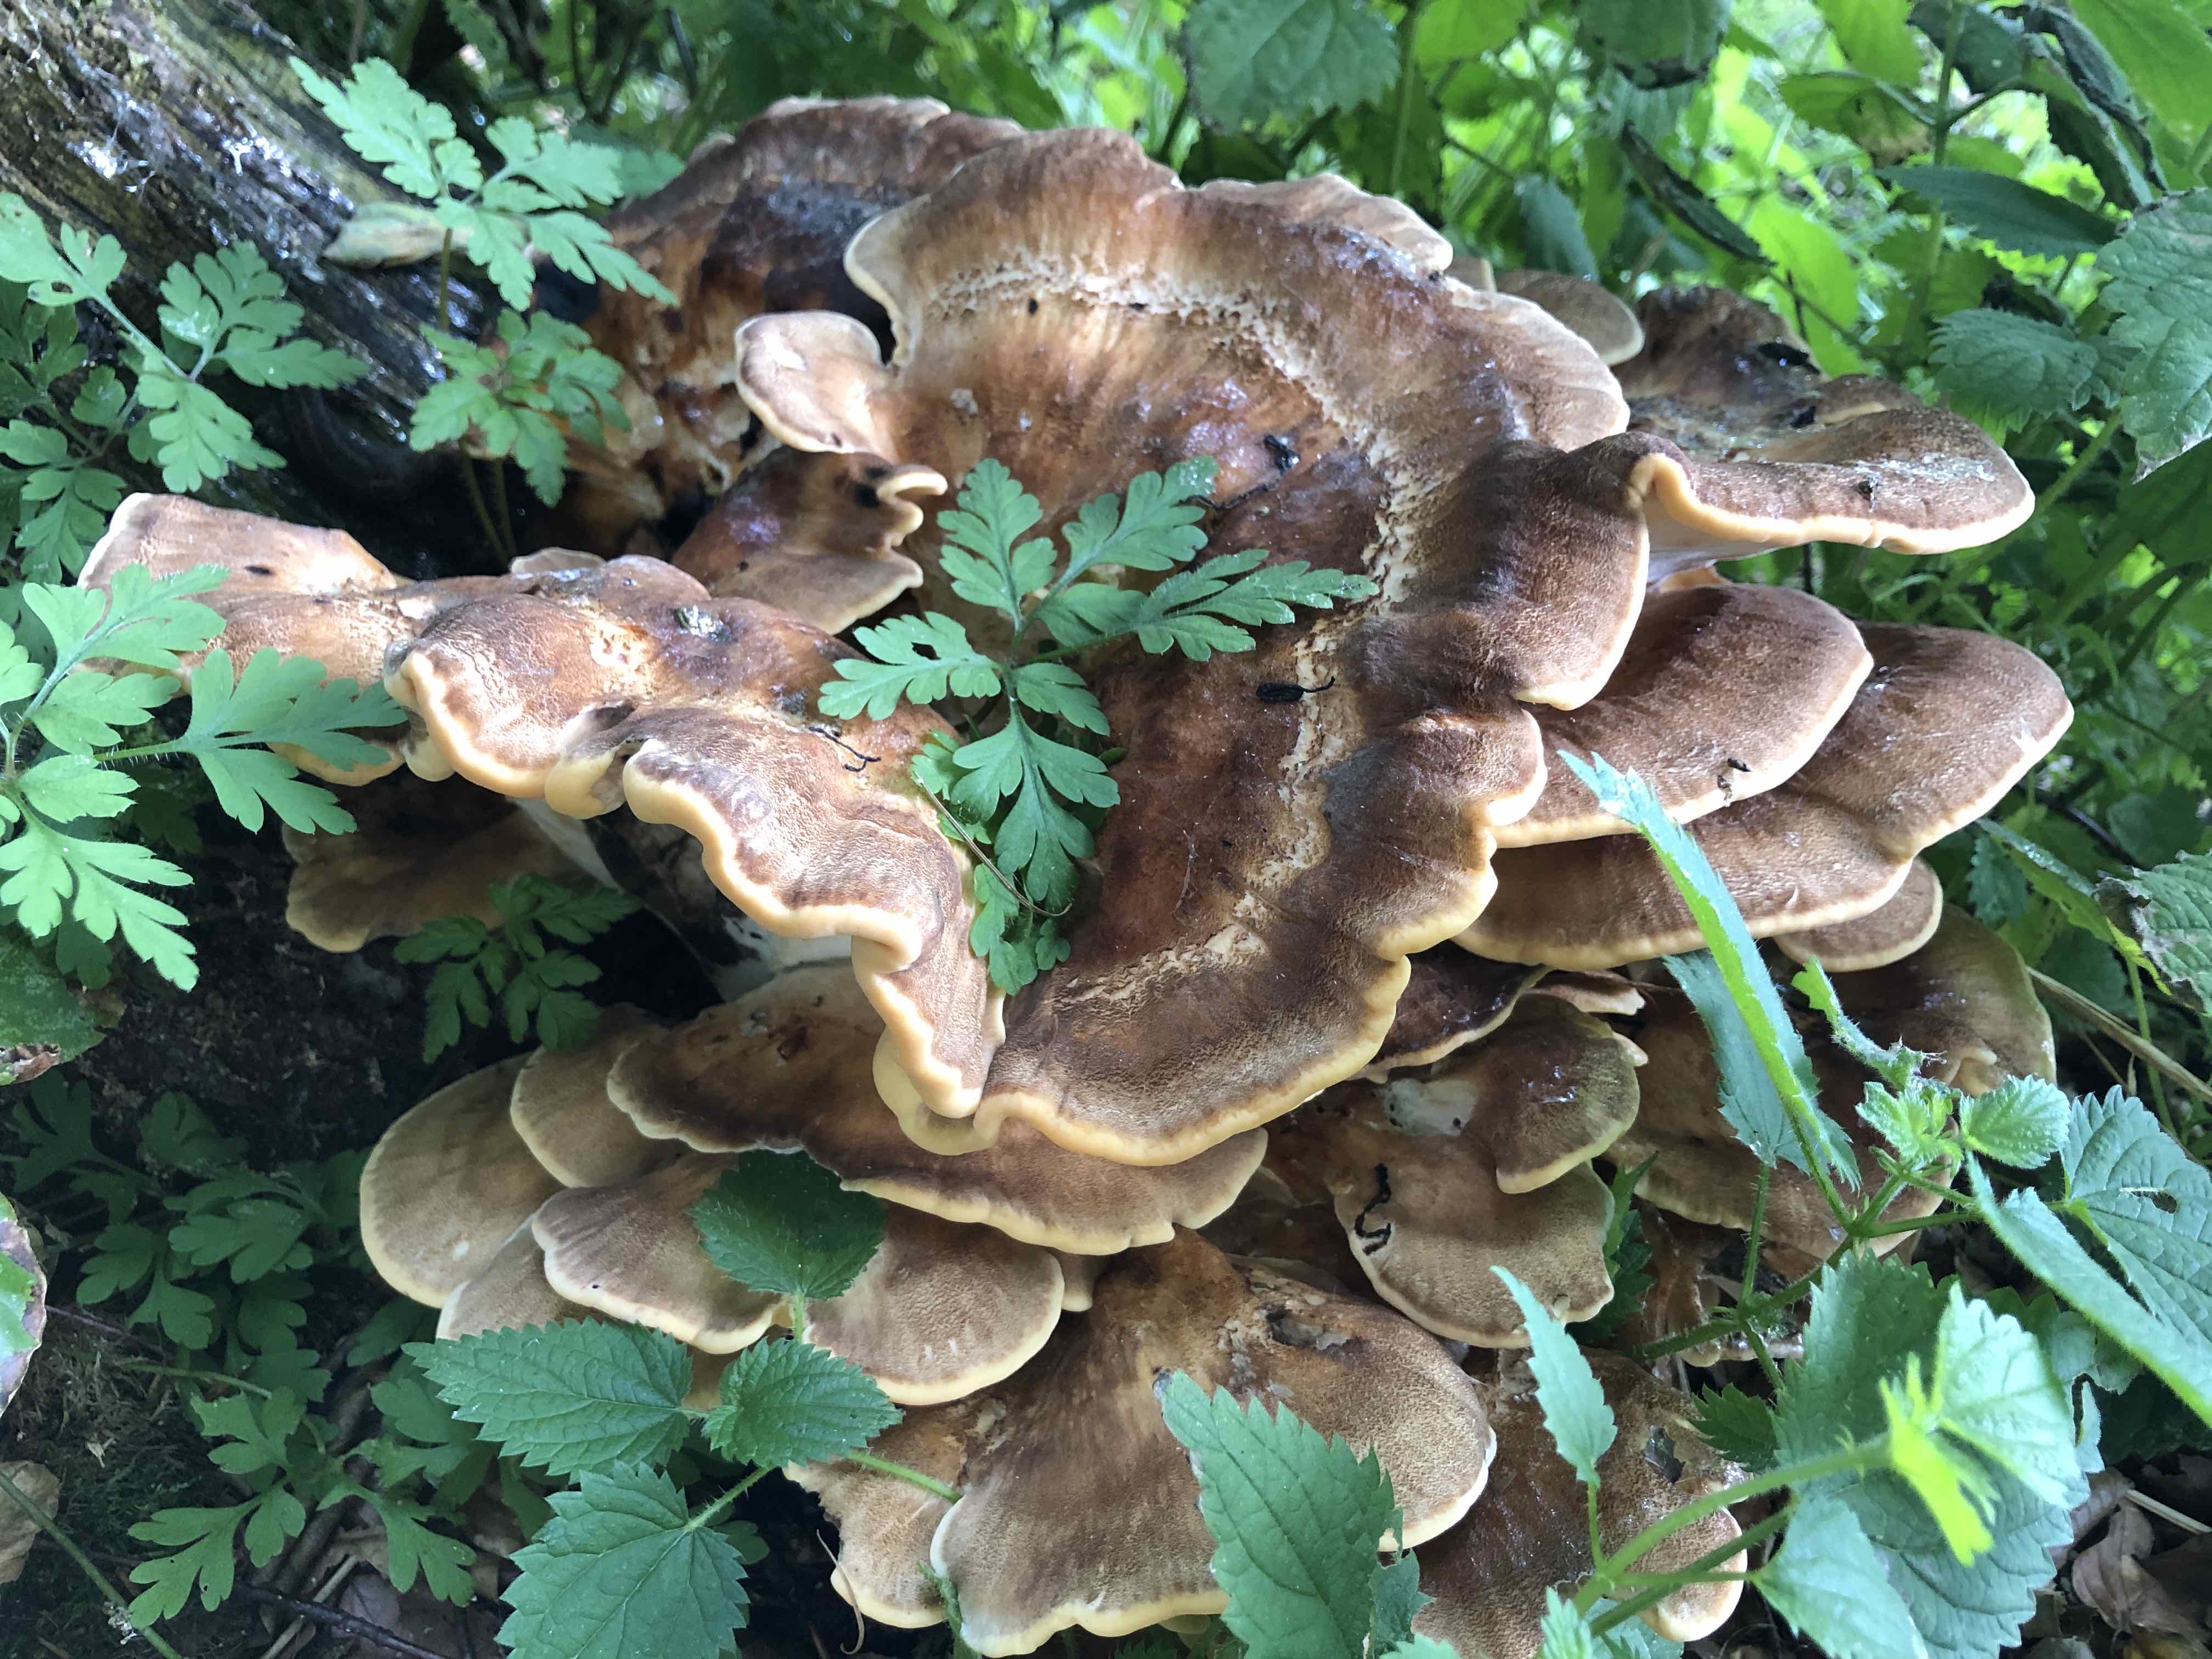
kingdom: Fungi
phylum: Basidiomycota
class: Agaricomycetes
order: Polyporales
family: Meripilaceae
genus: Meripilus
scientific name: Meripilus giganteus
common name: kæmpeporesvamp
